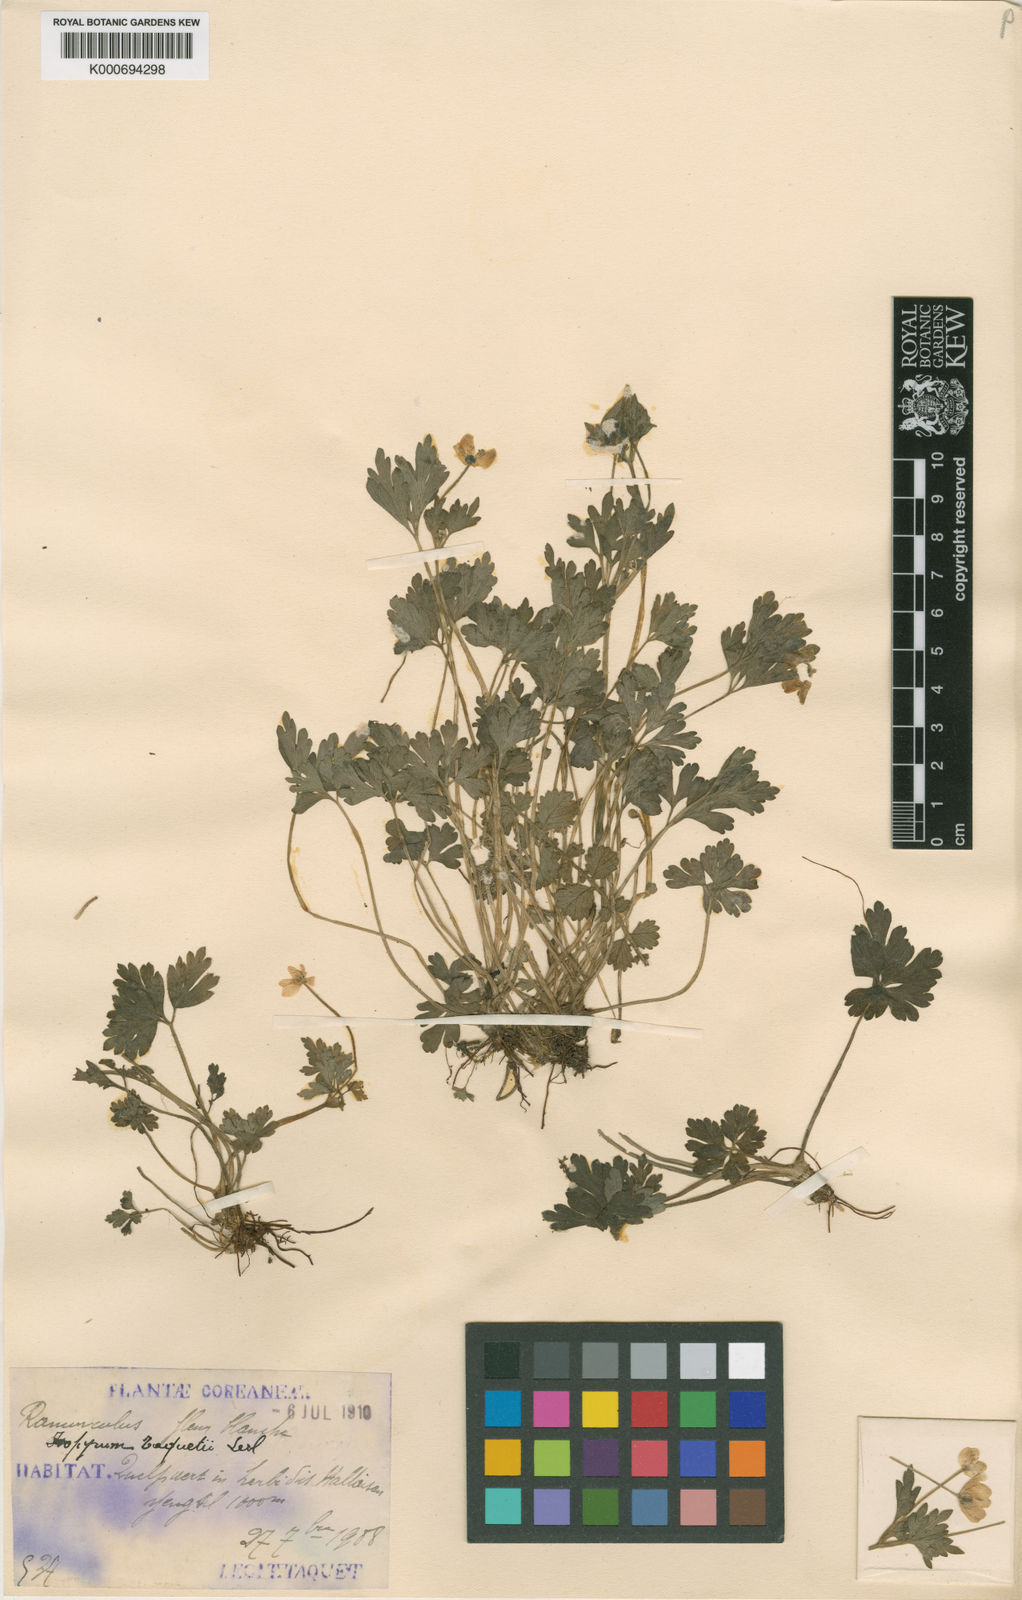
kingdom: Plantae
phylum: Tracheophyta
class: Magnoliopsida
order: Ranunculales
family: Ranunculaceae
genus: Isopyrum
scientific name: Isopyrum
